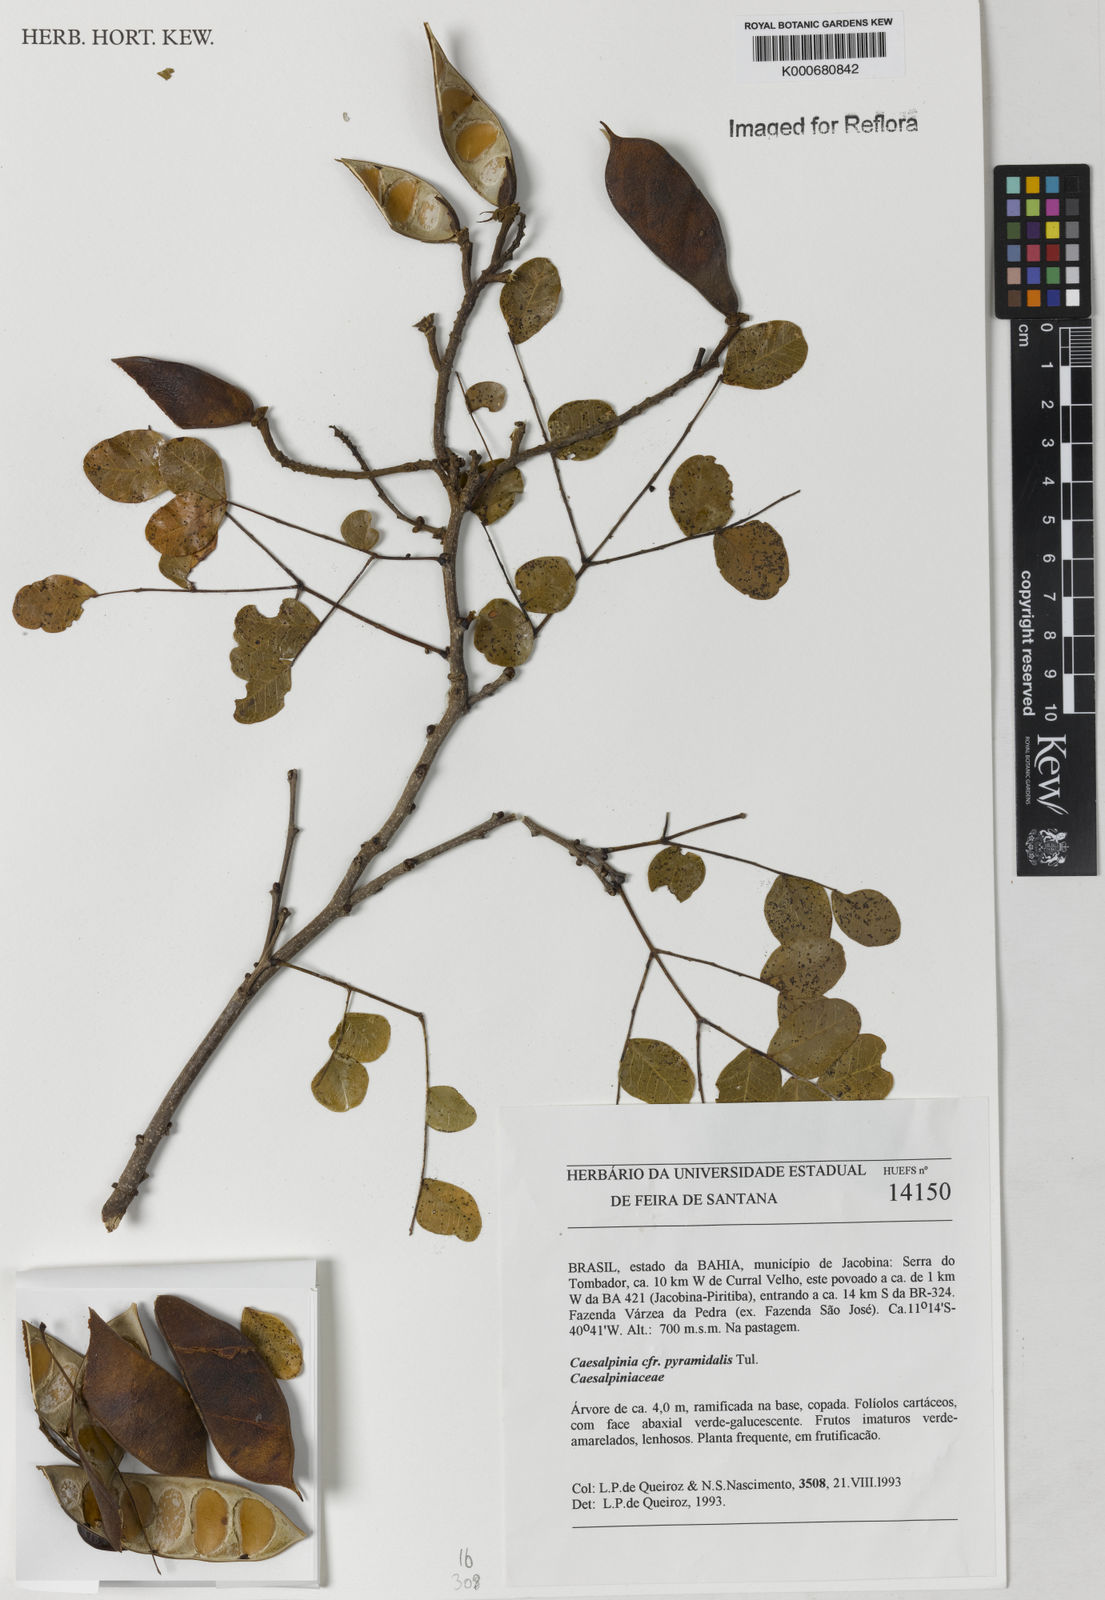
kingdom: Plantae
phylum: Tracheophyta
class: Magnoliopsida
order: Fabales
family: Fabaceae
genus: Cenostigma
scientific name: Cenostigma pyramidale
